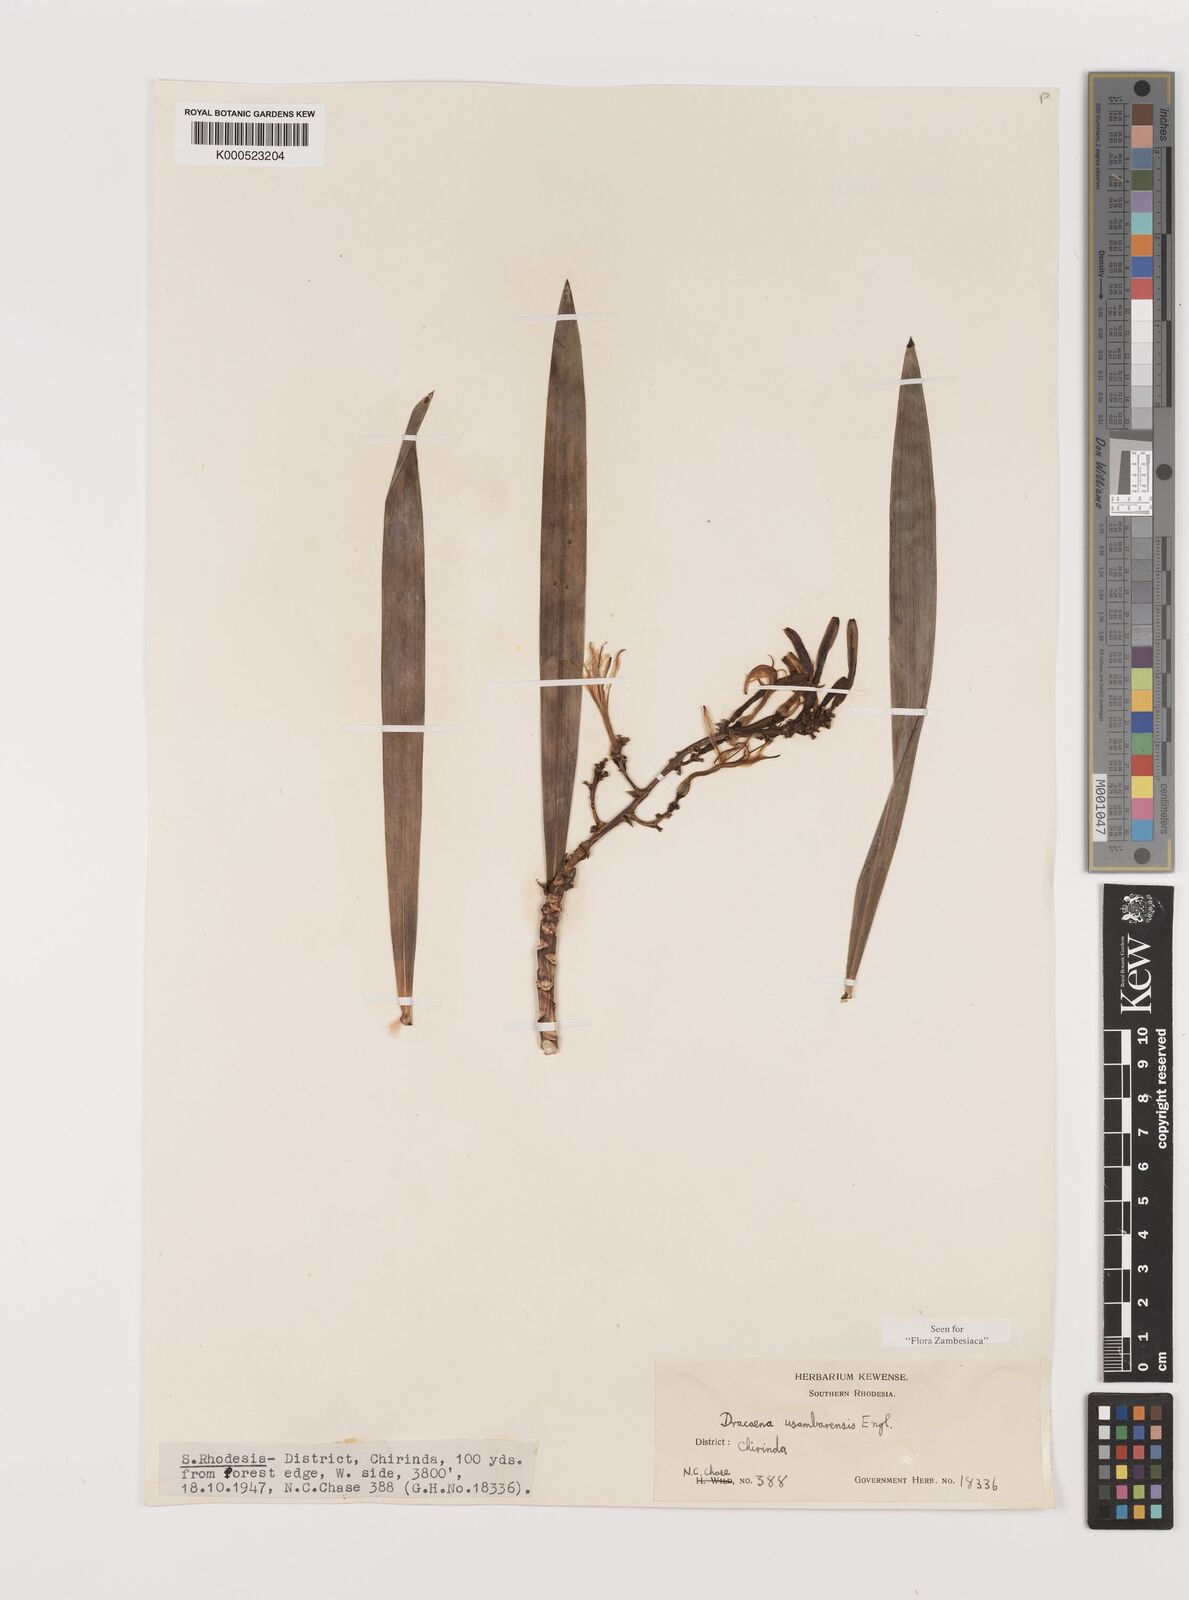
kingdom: Plantae
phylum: Tracheophyta
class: Liliopsida
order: Asparagales
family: Asparagaceae
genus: Dracaena
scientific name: Dracaena usambarensis
